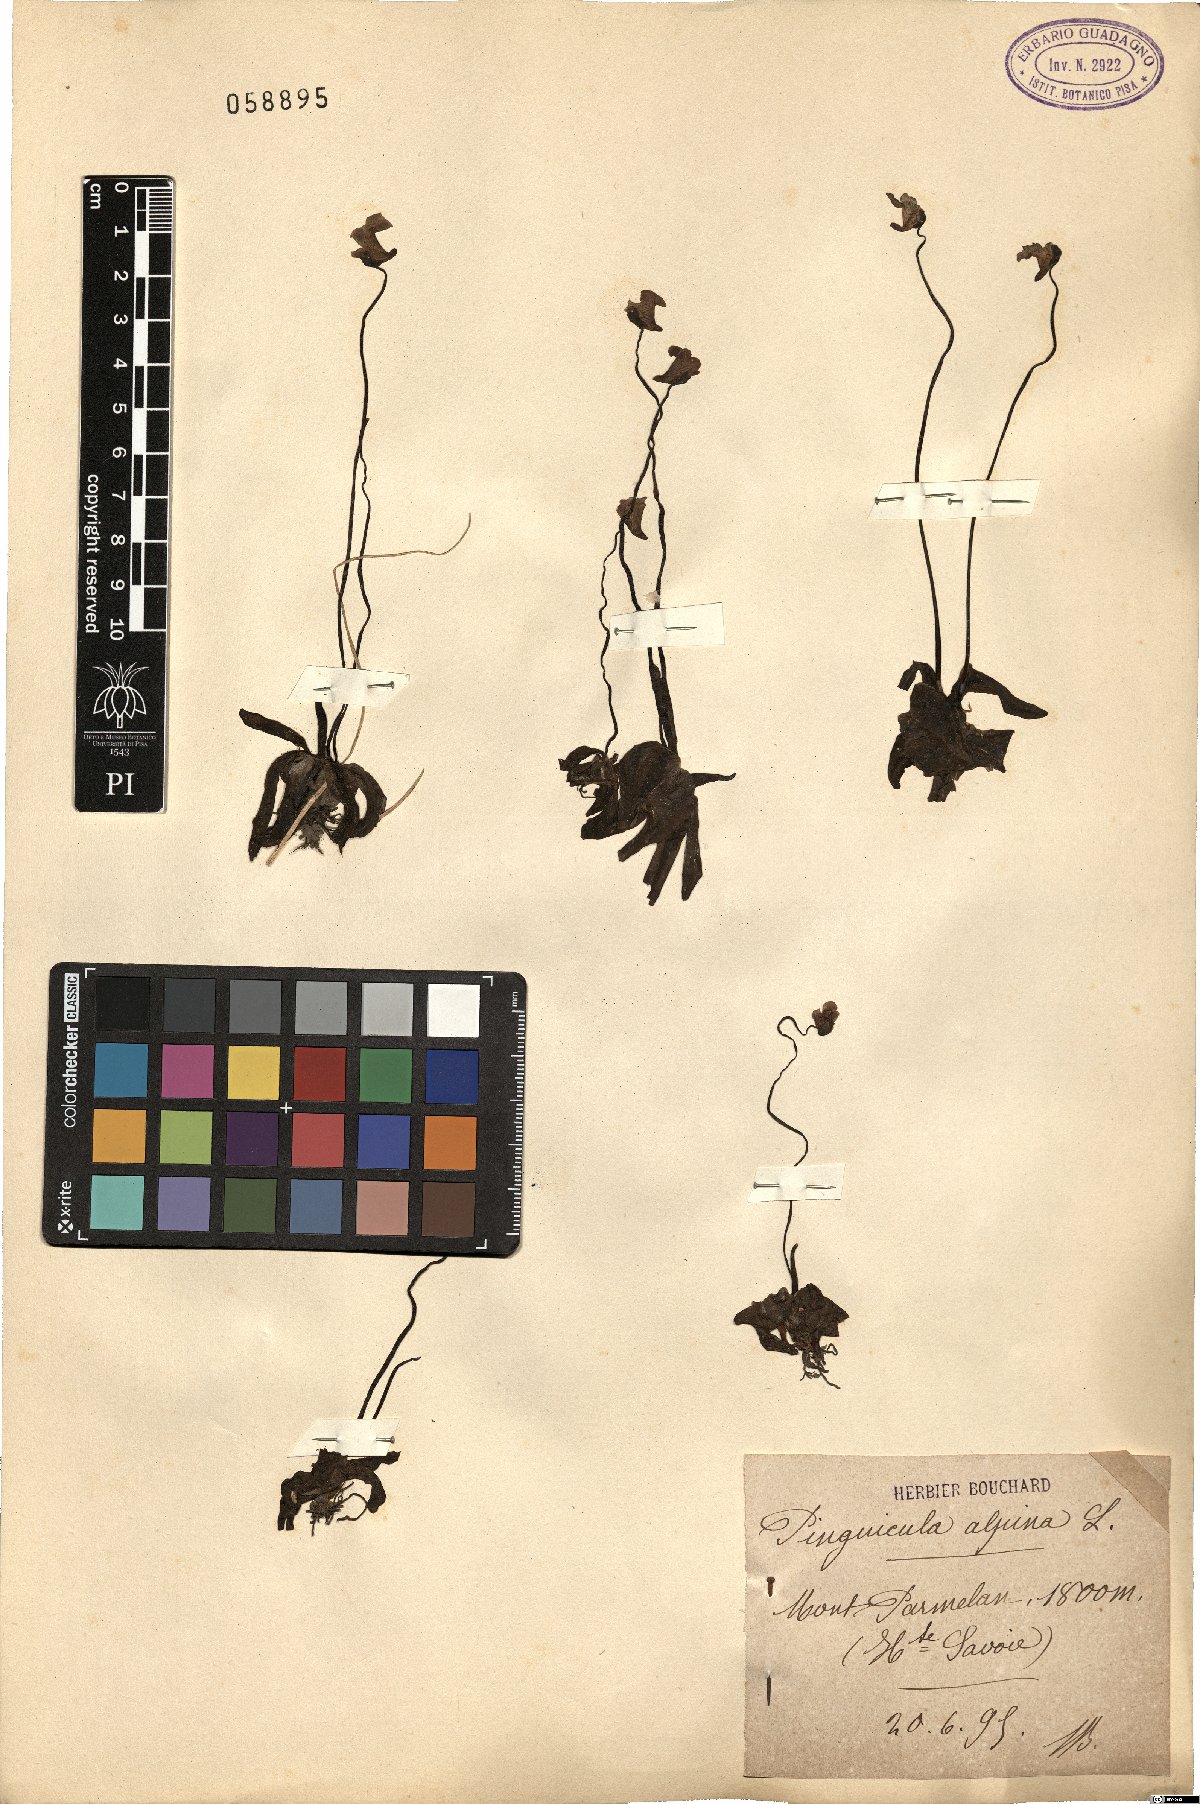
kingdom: Plantae
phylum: Tracheophyta
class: Magnoliopsida
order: Lamiales
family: Lentibulariaceae
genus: Pinguicula
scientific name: Pinguicula alpina
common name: Alpine butterwort
